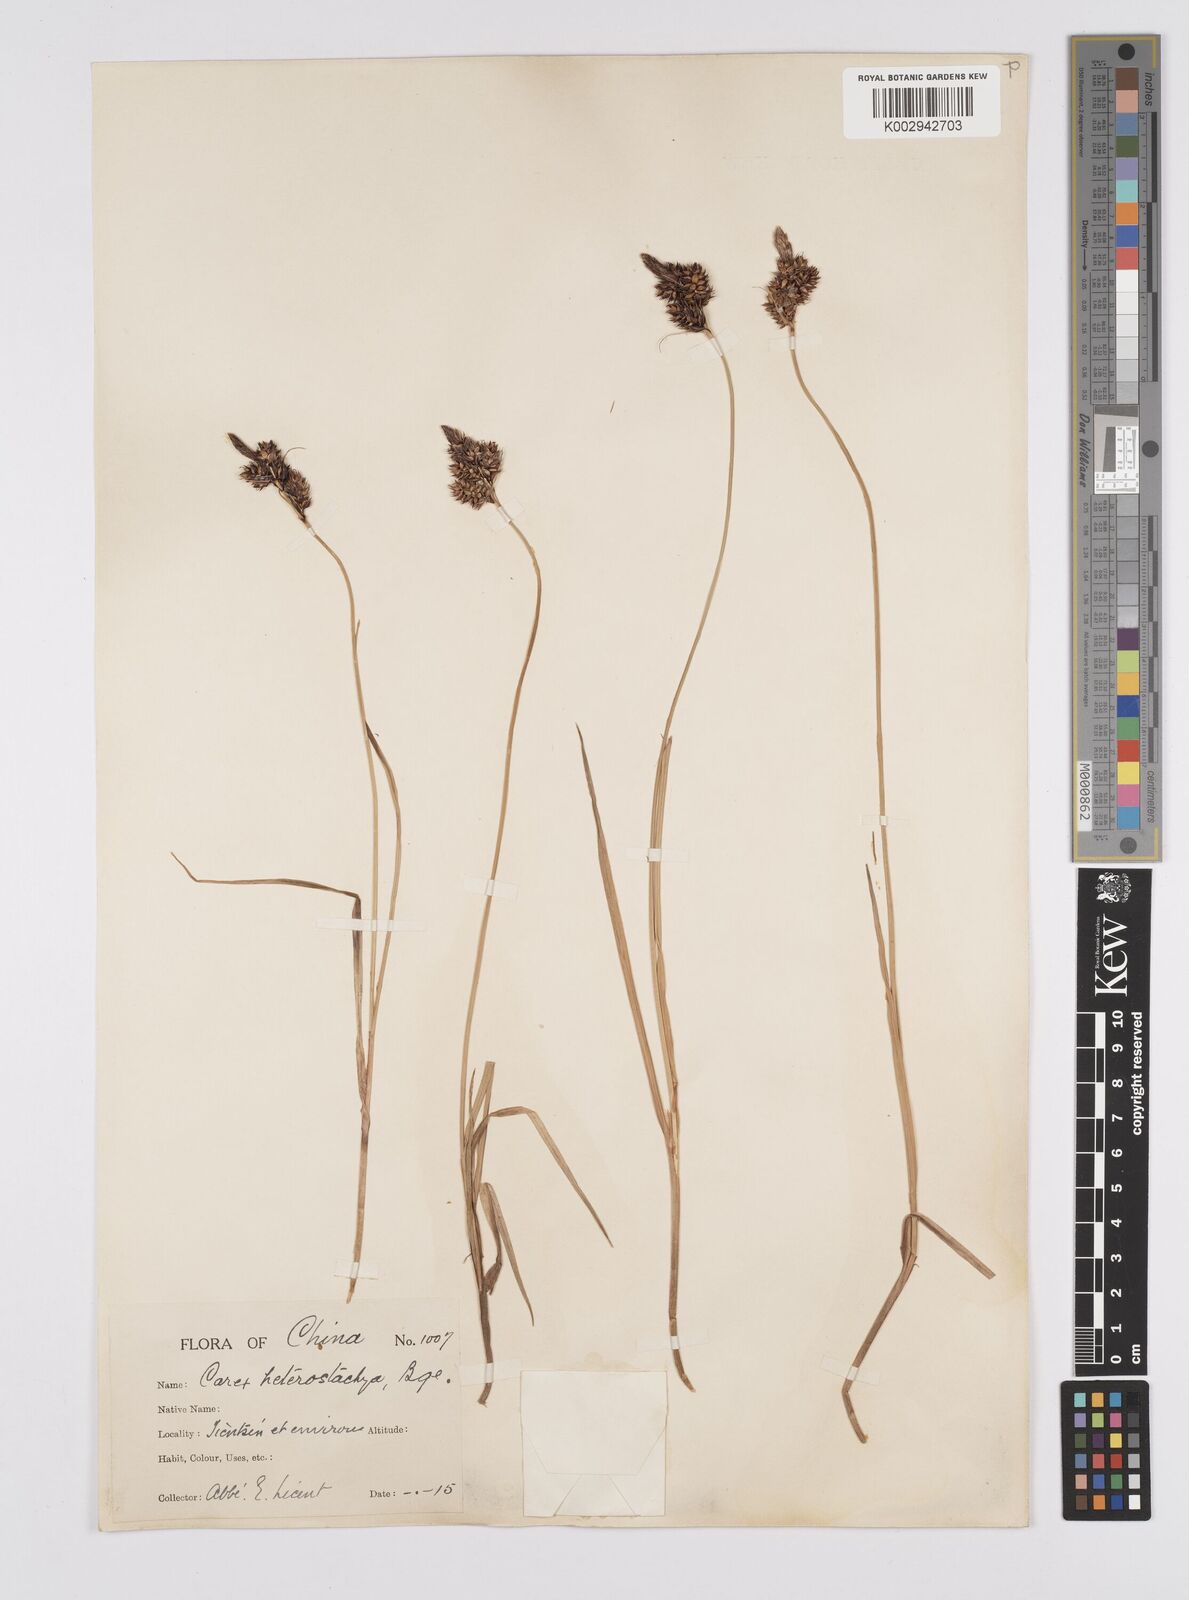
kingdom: Plantae
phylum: Tracheophyta
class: Liliopsida
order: Poales
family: Cyperaceae
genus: Carex
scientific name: Carex heterostachya
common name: Different-spike sedge
